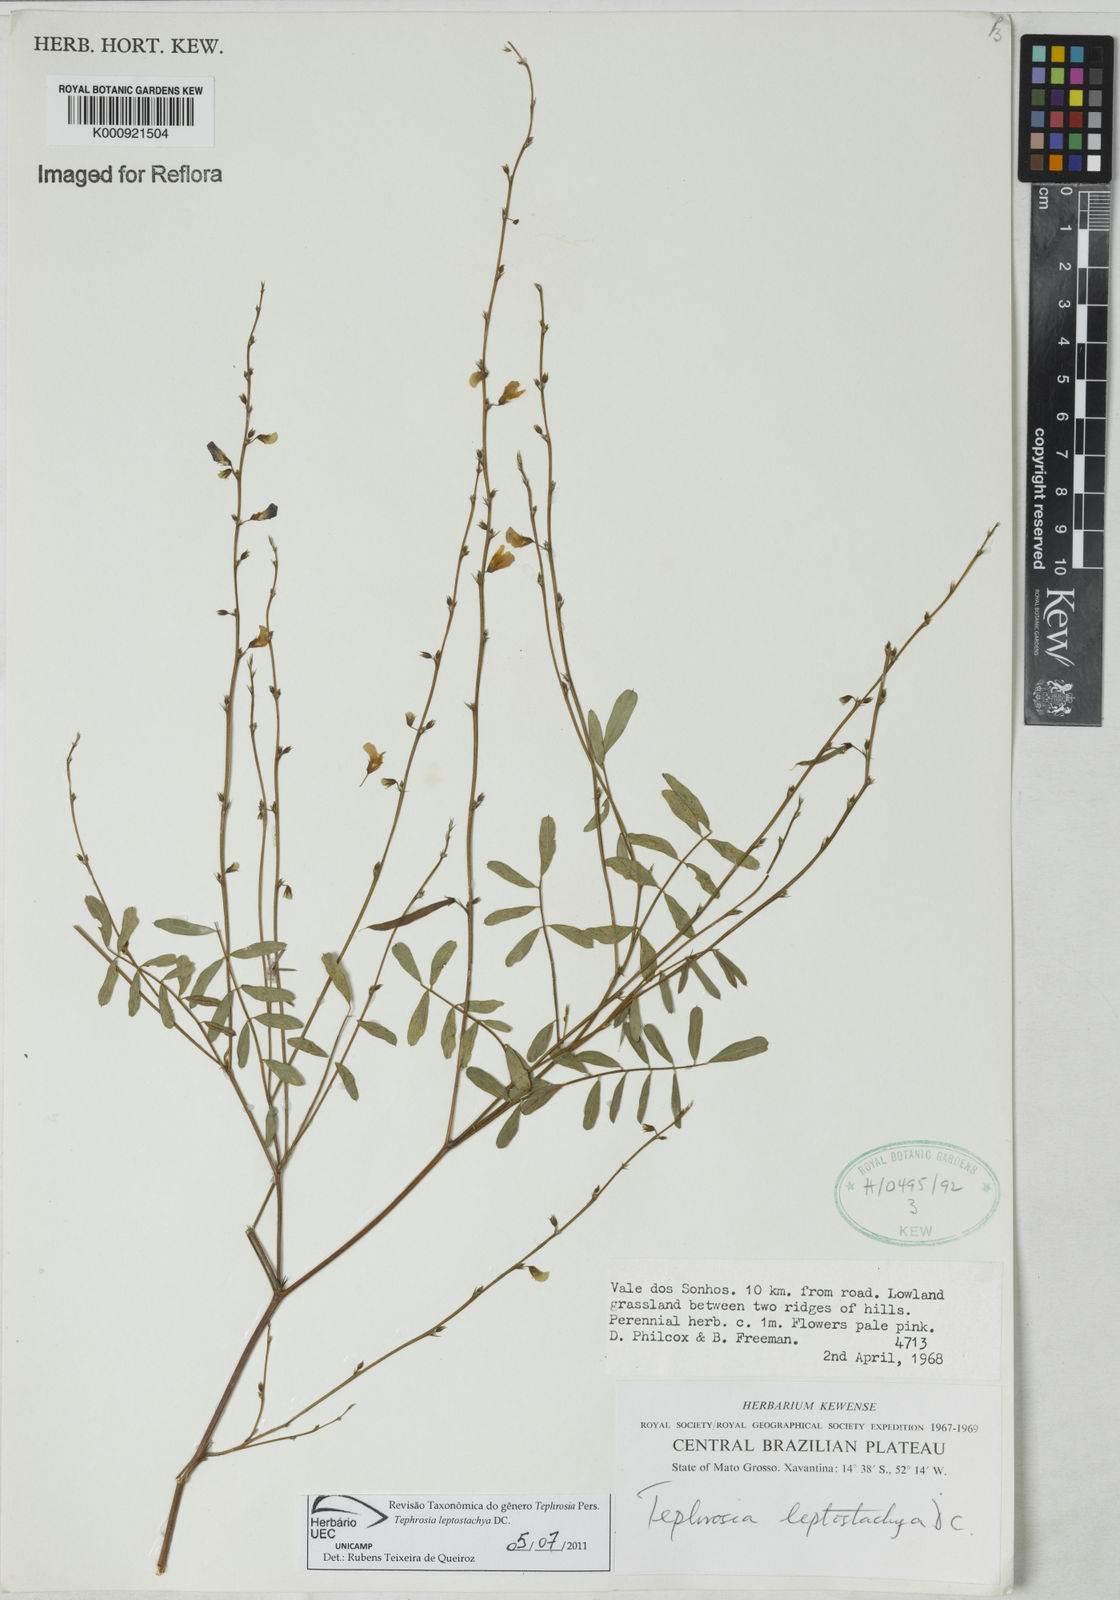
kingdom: Plantae
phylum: Tracheophyta
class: Magnoliopsida
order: Fabales
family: Fabaceae
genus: Tephrosia
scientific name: Tephrosia purpurea
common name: Fishpoison
